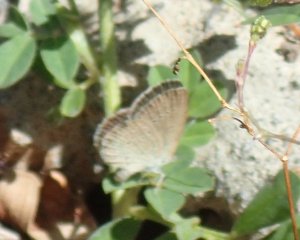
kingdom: Animalia
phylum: Arthropoda
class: Insecta
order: Lepidoptera
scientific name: Lepidoptera
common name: Butterflies
